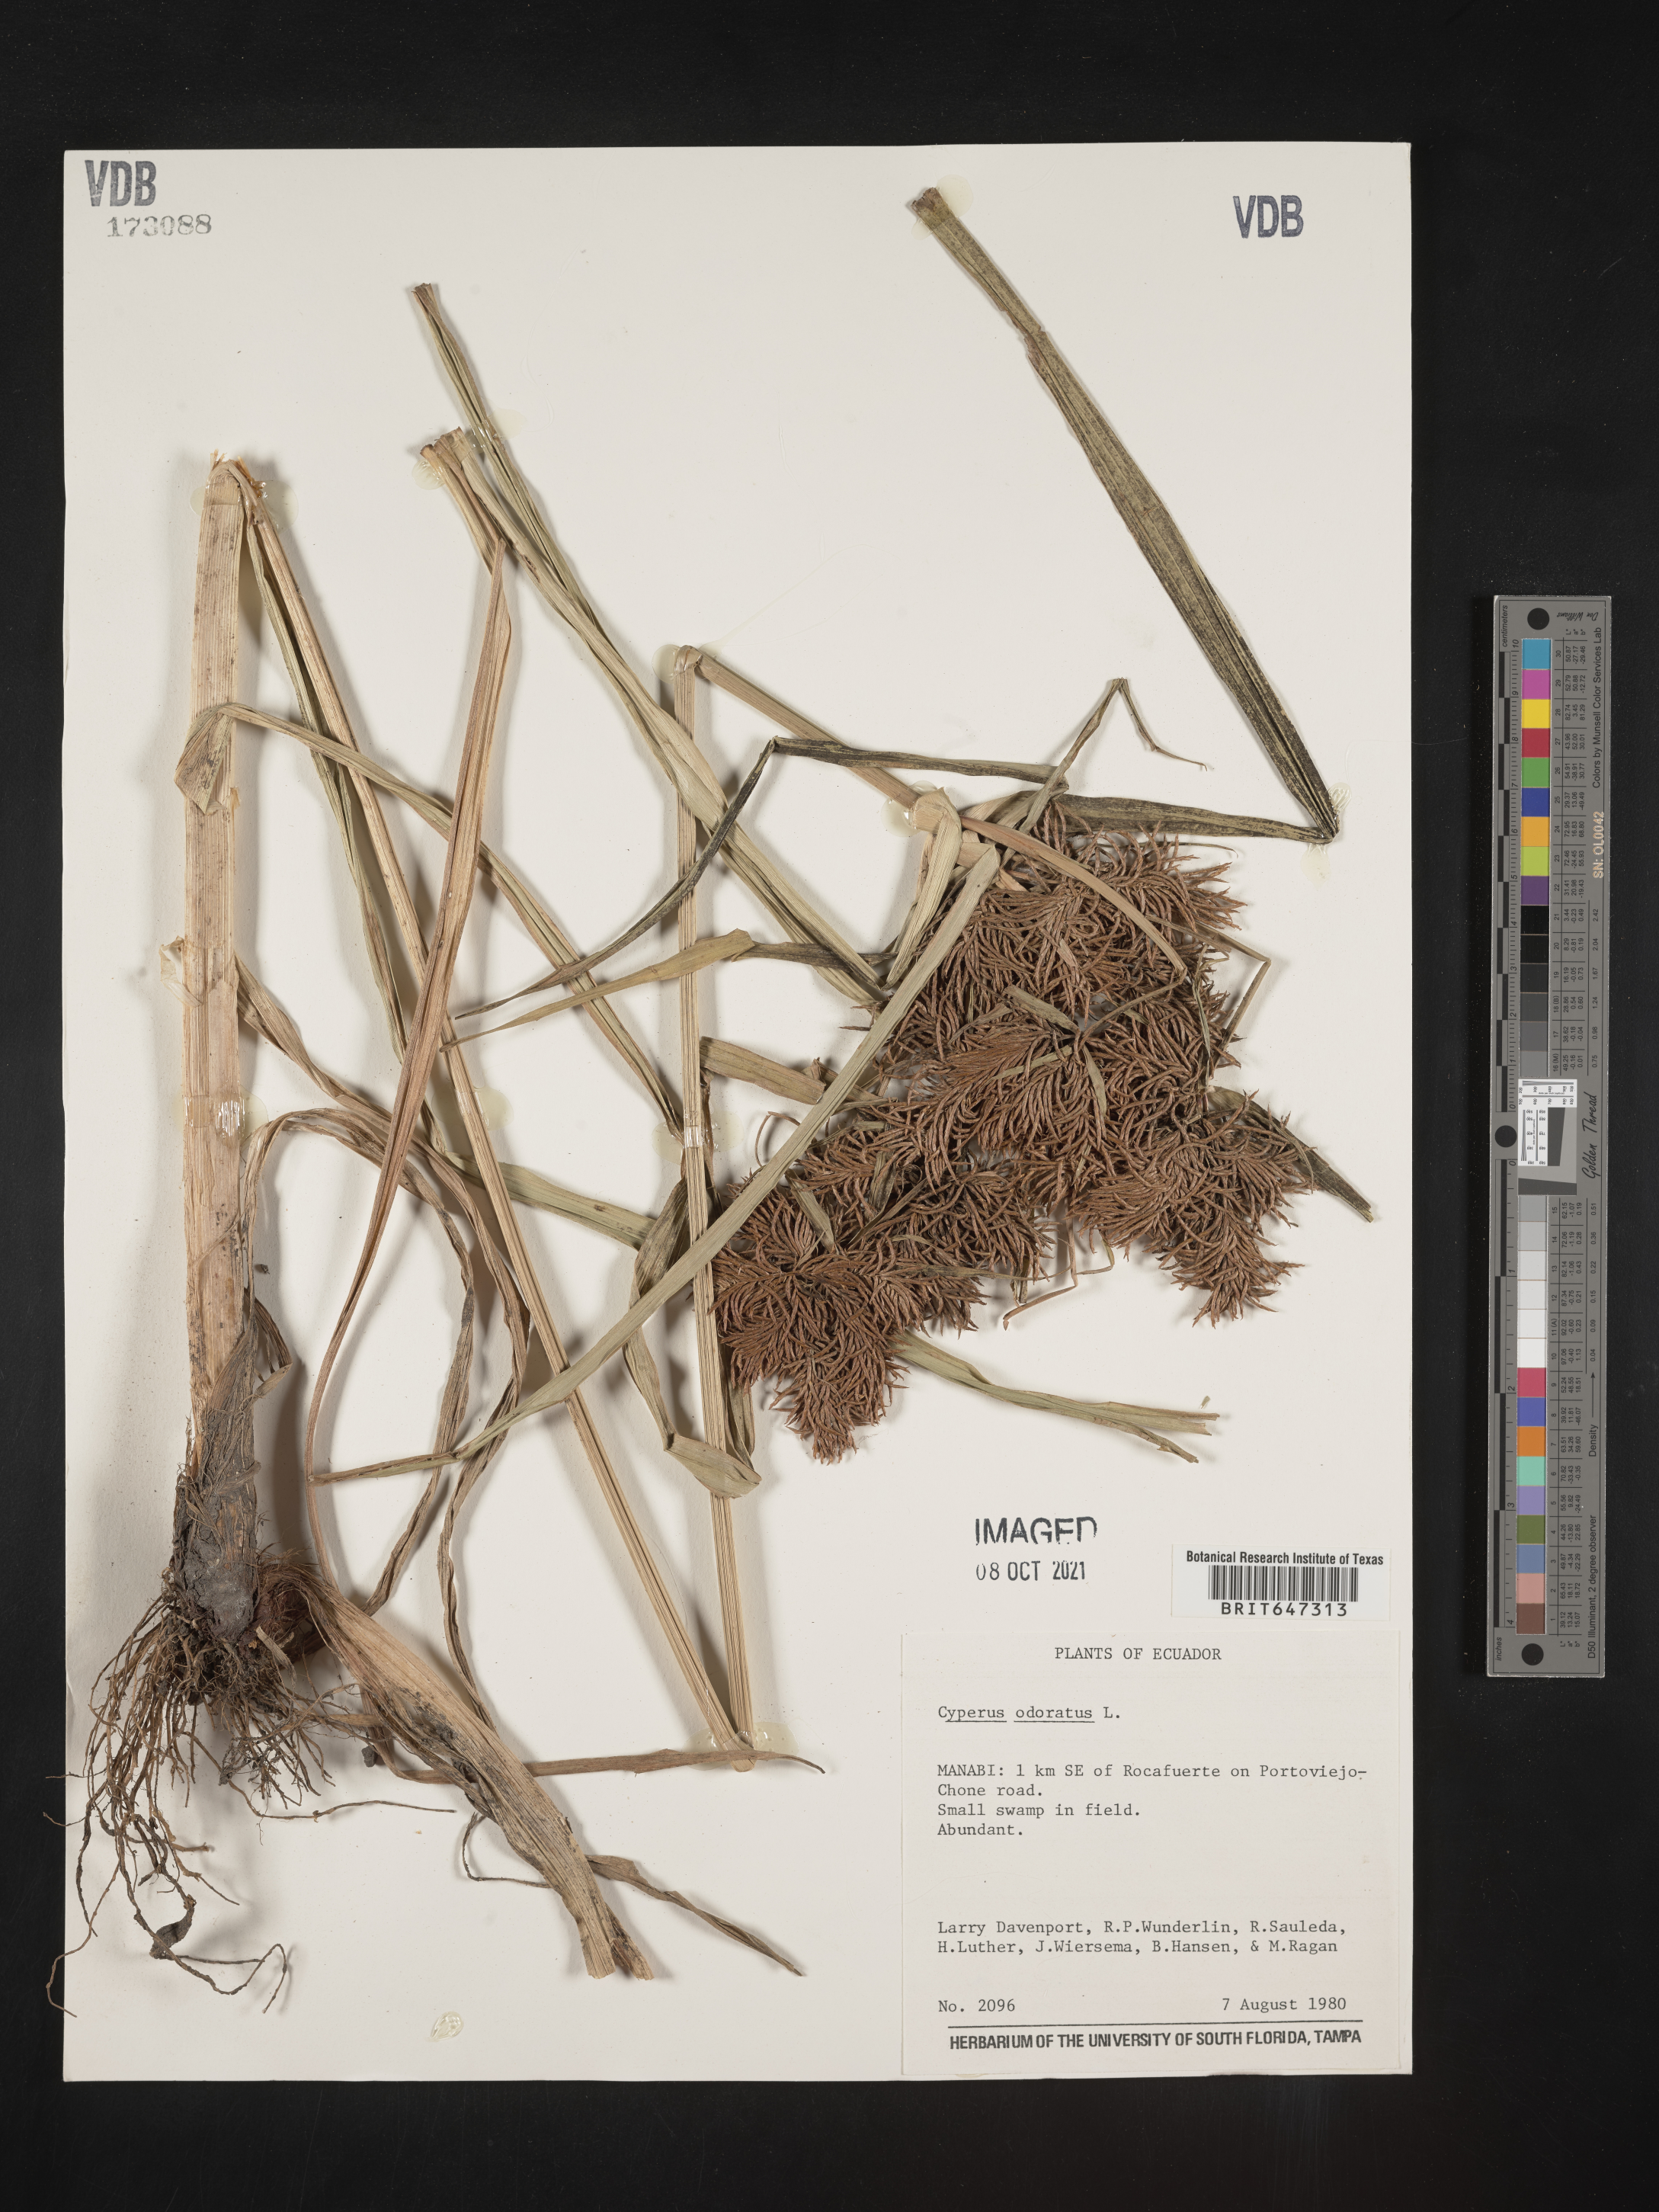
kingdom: Plantae
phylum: Tracheophyta
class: Liliopsida
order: Poales
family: Cyperaceae
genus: Cyperus
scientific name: Cyperus odoratus
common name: Fragrant flatsedge
